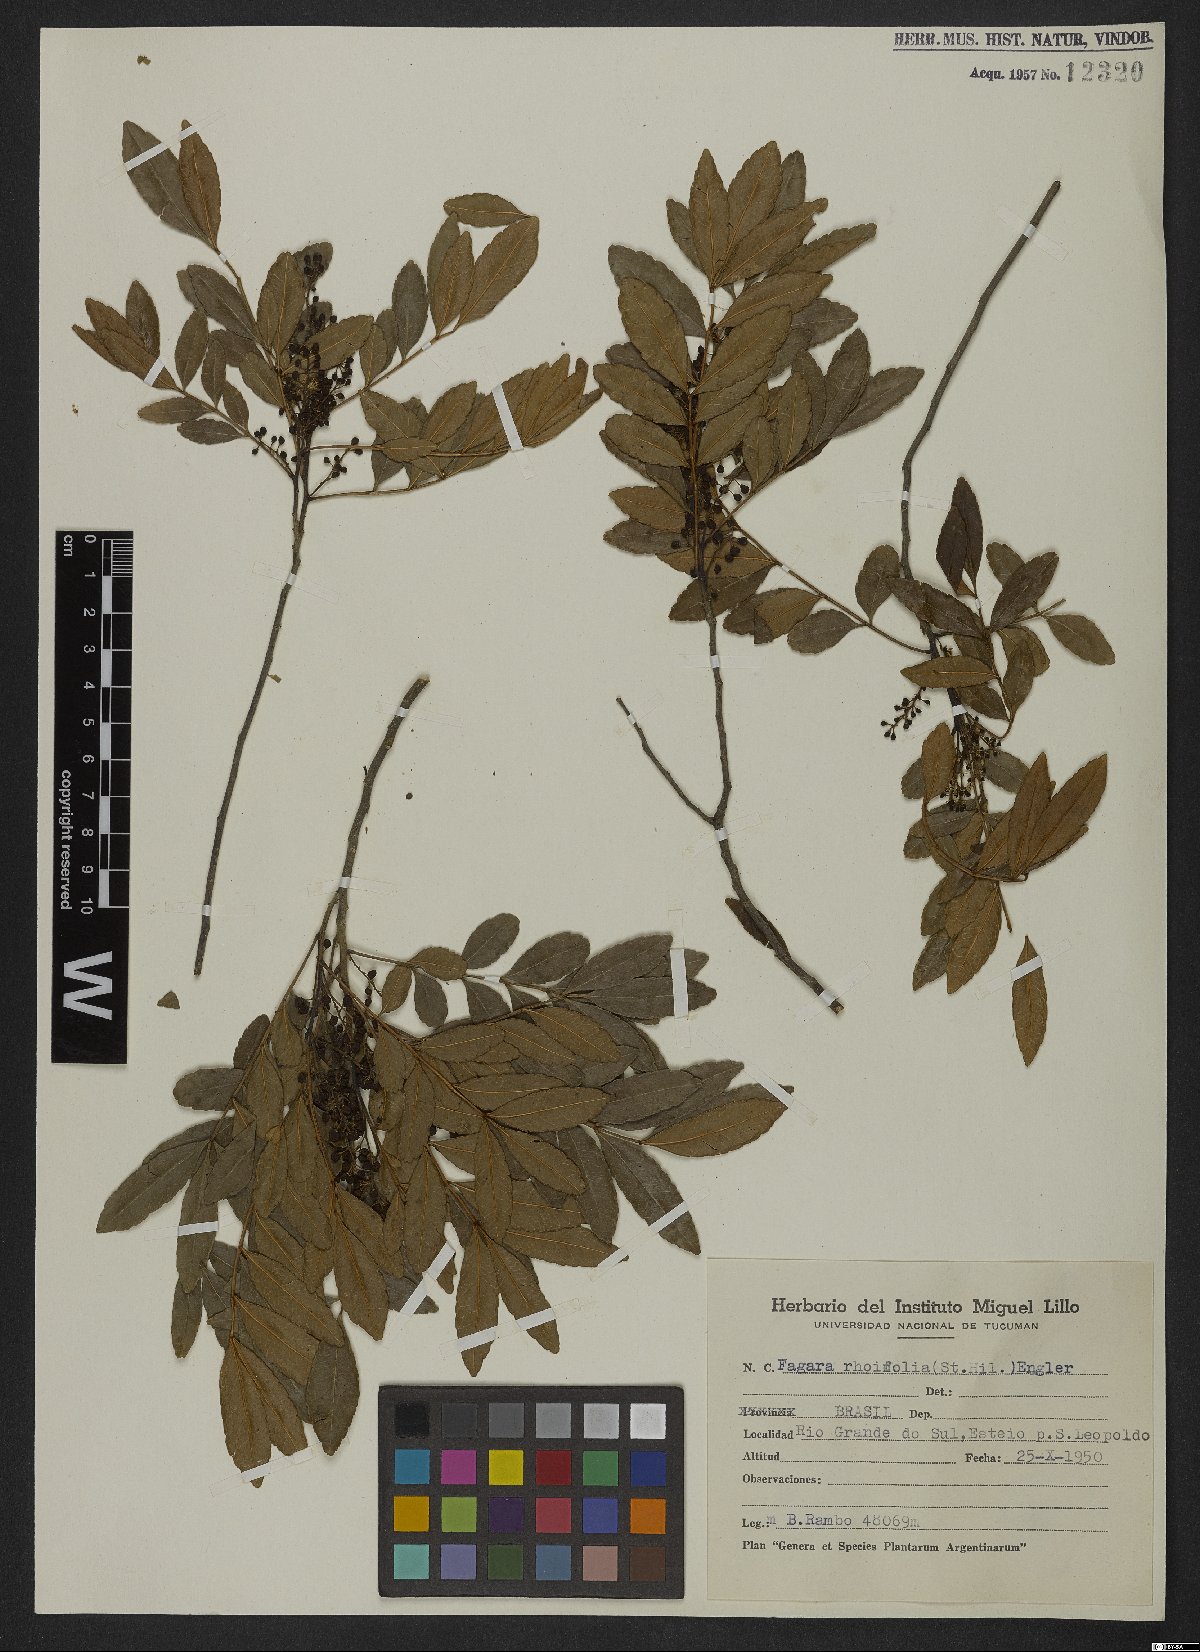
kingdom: Plantae
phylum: Tracheophyta
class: Magnoliopsida
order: Sapindales
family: Rutaceae
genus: Zanthoxylum
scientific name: Zanthoxylum rhoifolium
